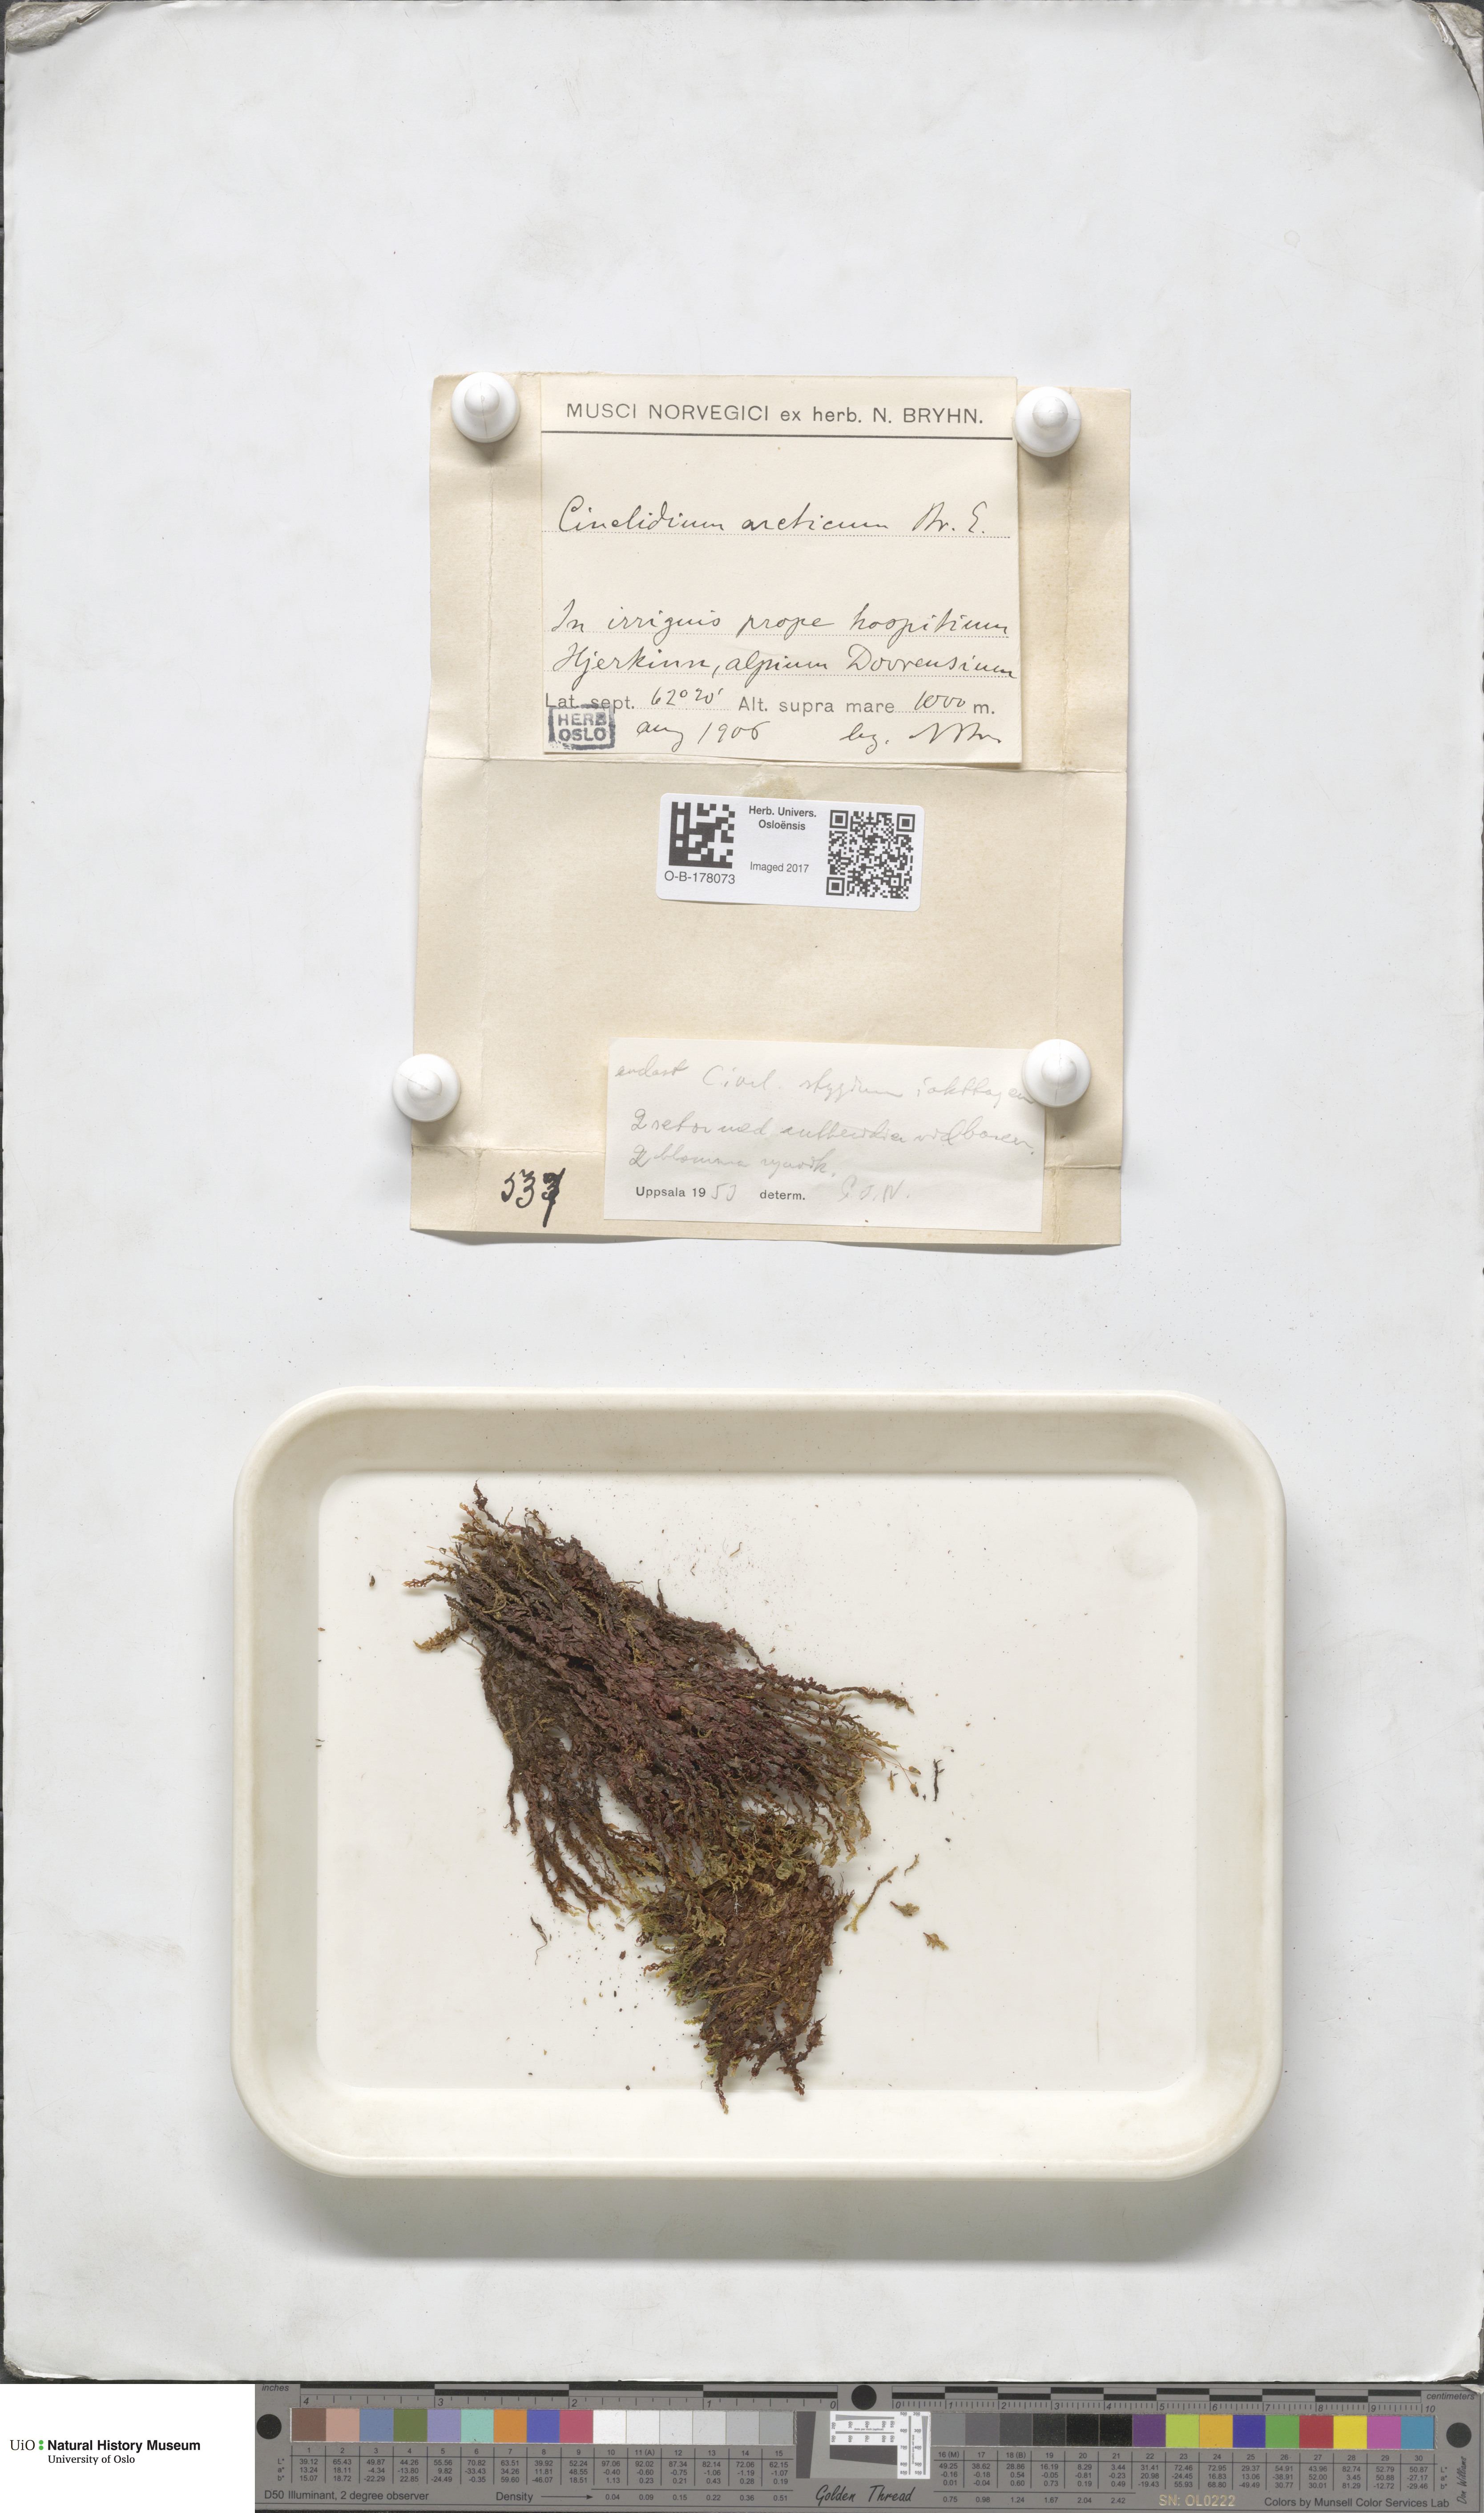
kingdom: Plantae
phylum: Bryophyta
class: Bryopsida
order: Bryales
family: Mniaceae
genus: Cinclidium
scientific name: Cinclidium stygium
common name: Sooty cupola moss
